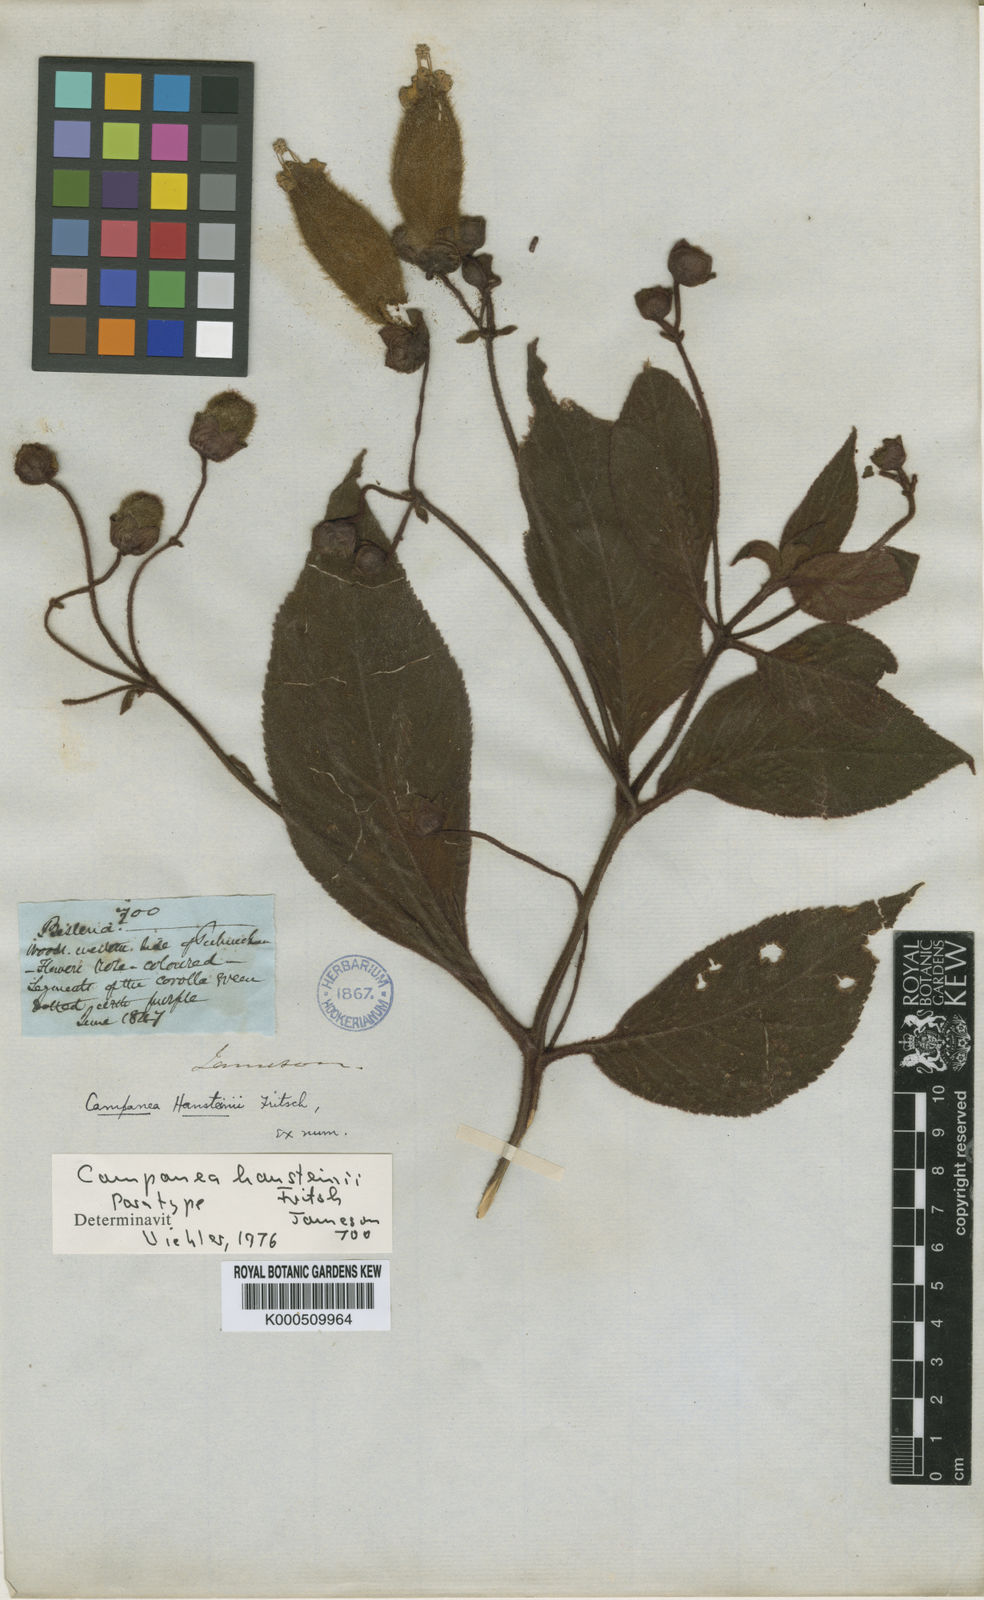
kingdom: Plantae
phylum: Tracheophyta
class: Magnoliopsida
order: Lamiales
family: Gesneriaceae
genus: Kohleria
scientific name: Kohleria
